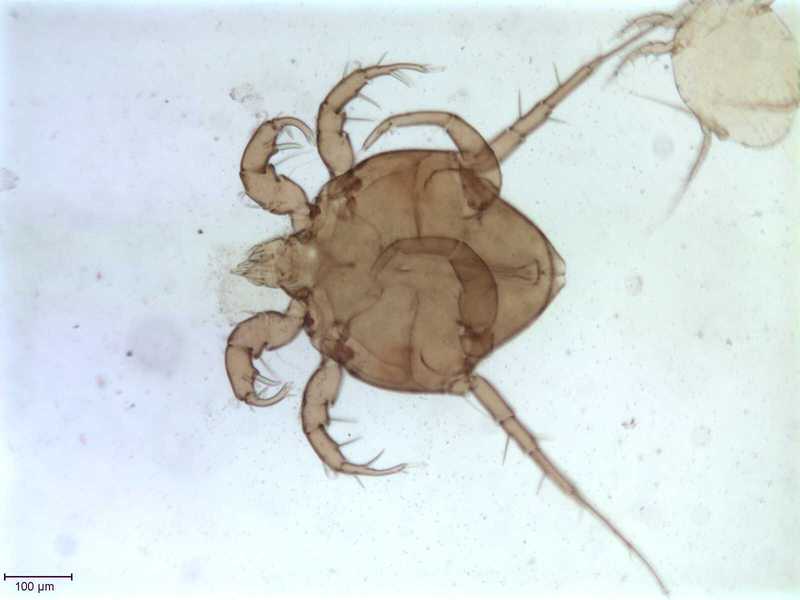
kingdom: Animalia
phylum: Arthropoda
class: Arachnida
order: Sarcoptiformes
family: Algophagidae
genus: Fusohericia
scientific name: Fusohericia incredibilis
